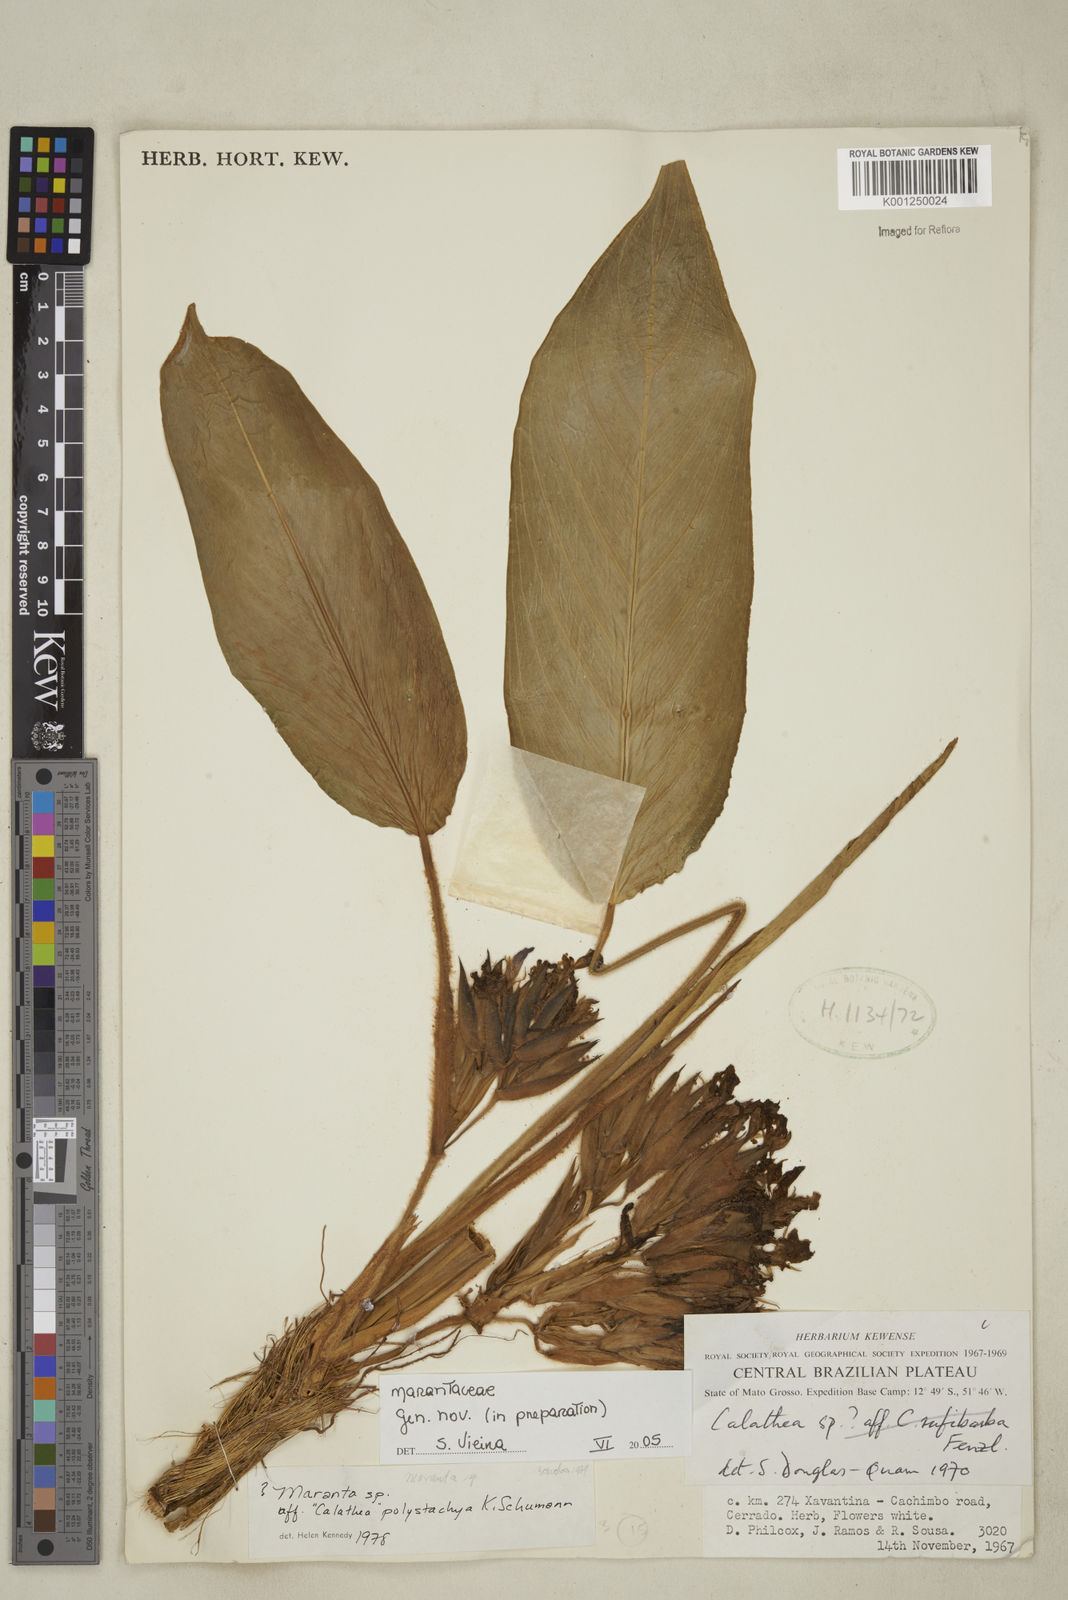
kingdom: Plantae
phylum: Tracheophyta
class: Liliopsida
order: Zingiberales
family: Marantaceae
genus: Maranta
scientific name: Maranta
